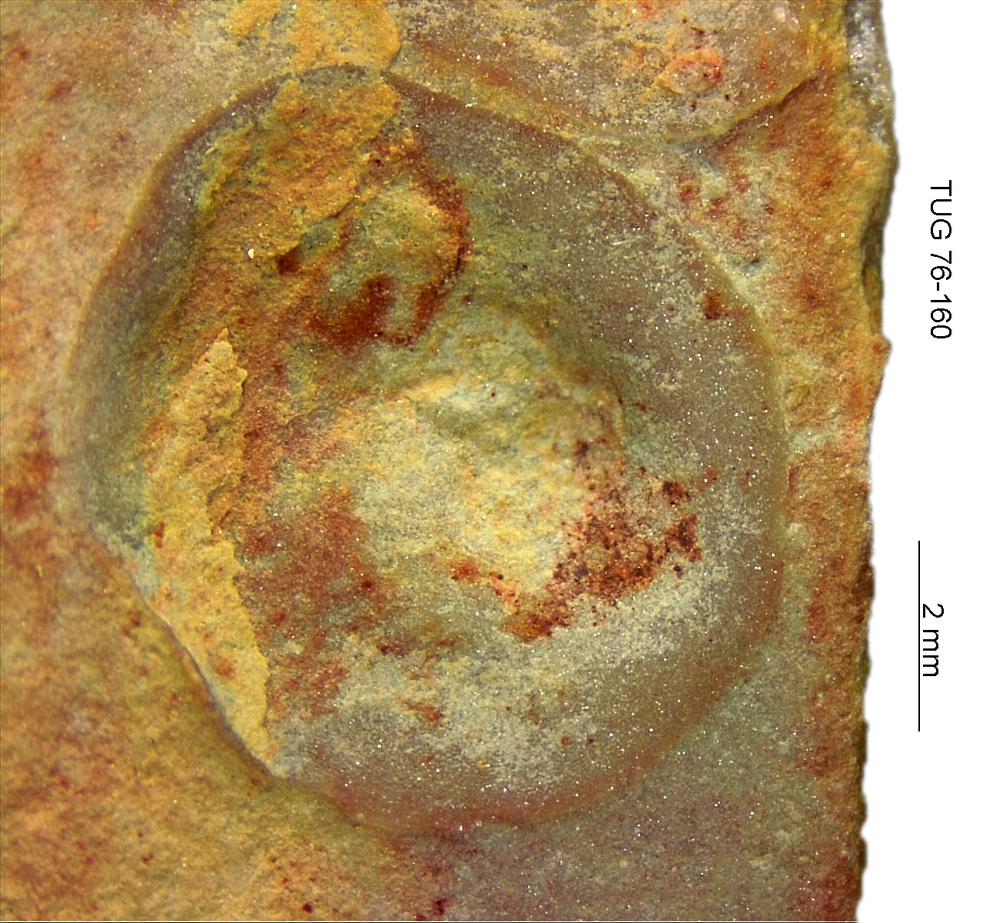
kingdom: Animalia
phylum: Brachiopoda
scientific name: Brachiopoda
